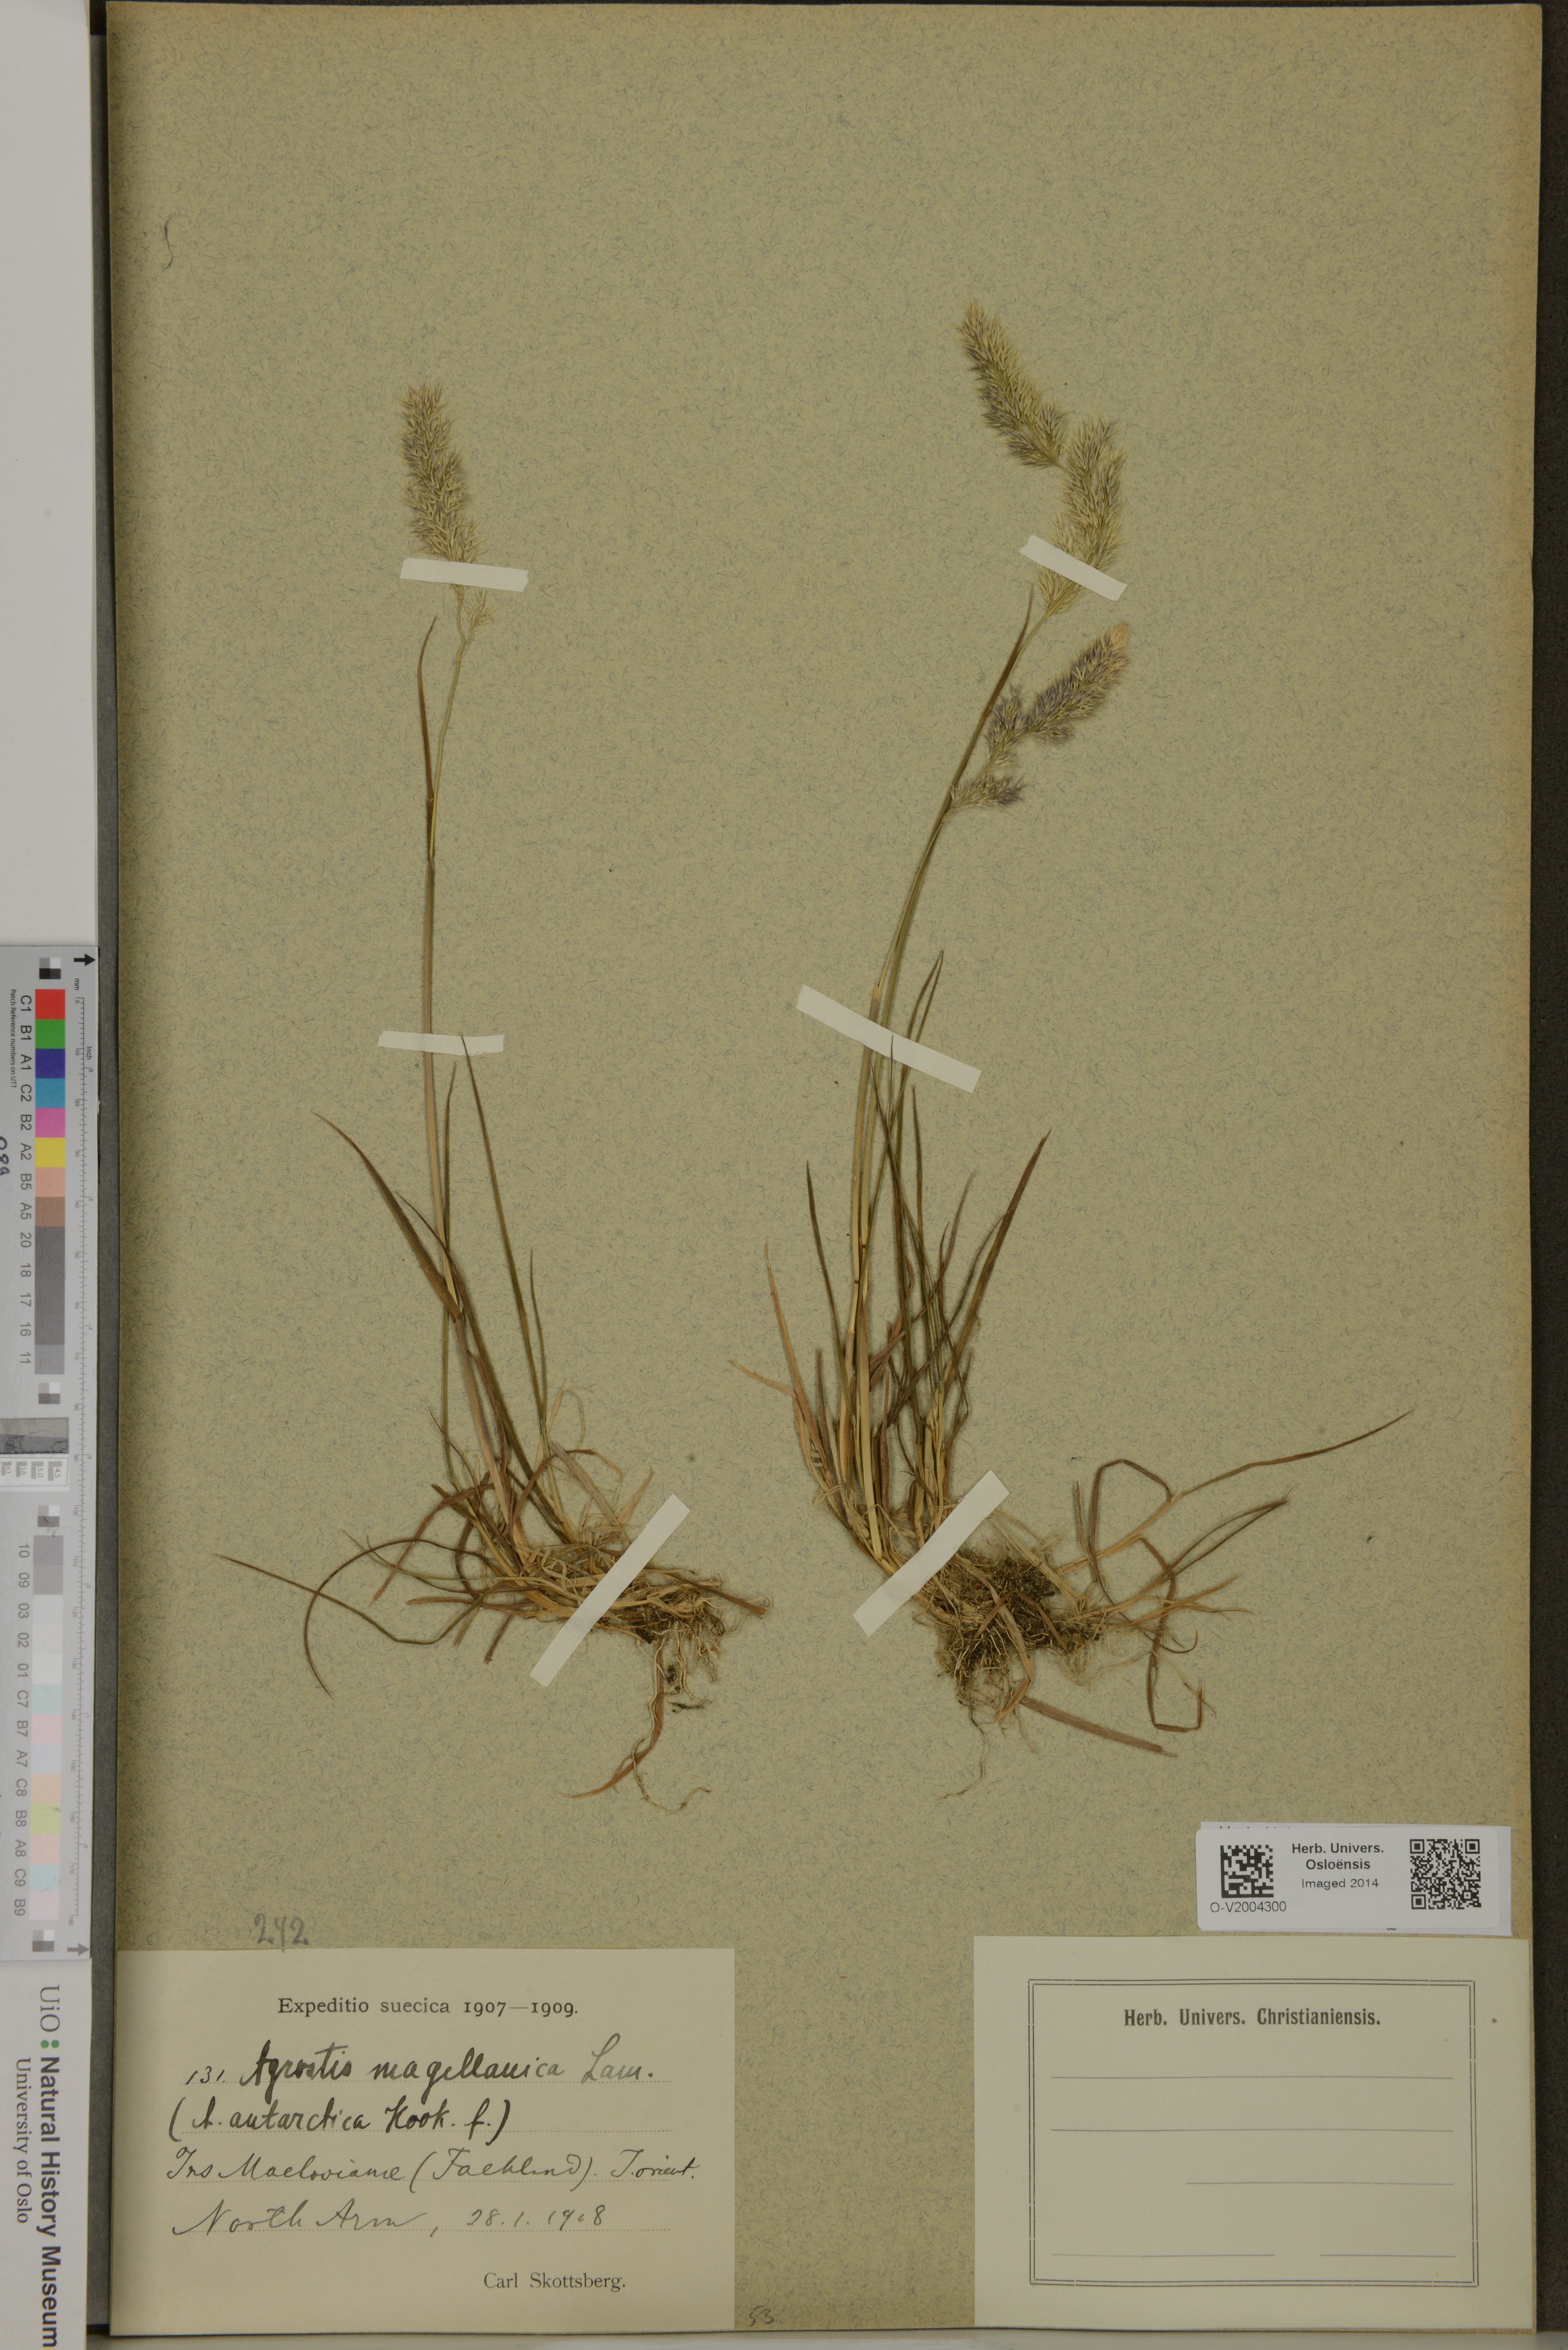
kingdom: Plantae
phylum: Tracheophyta
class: Liliopsida
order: Poales
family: Poaceae
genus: Polypogon
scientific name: Polypogon magellanicus
